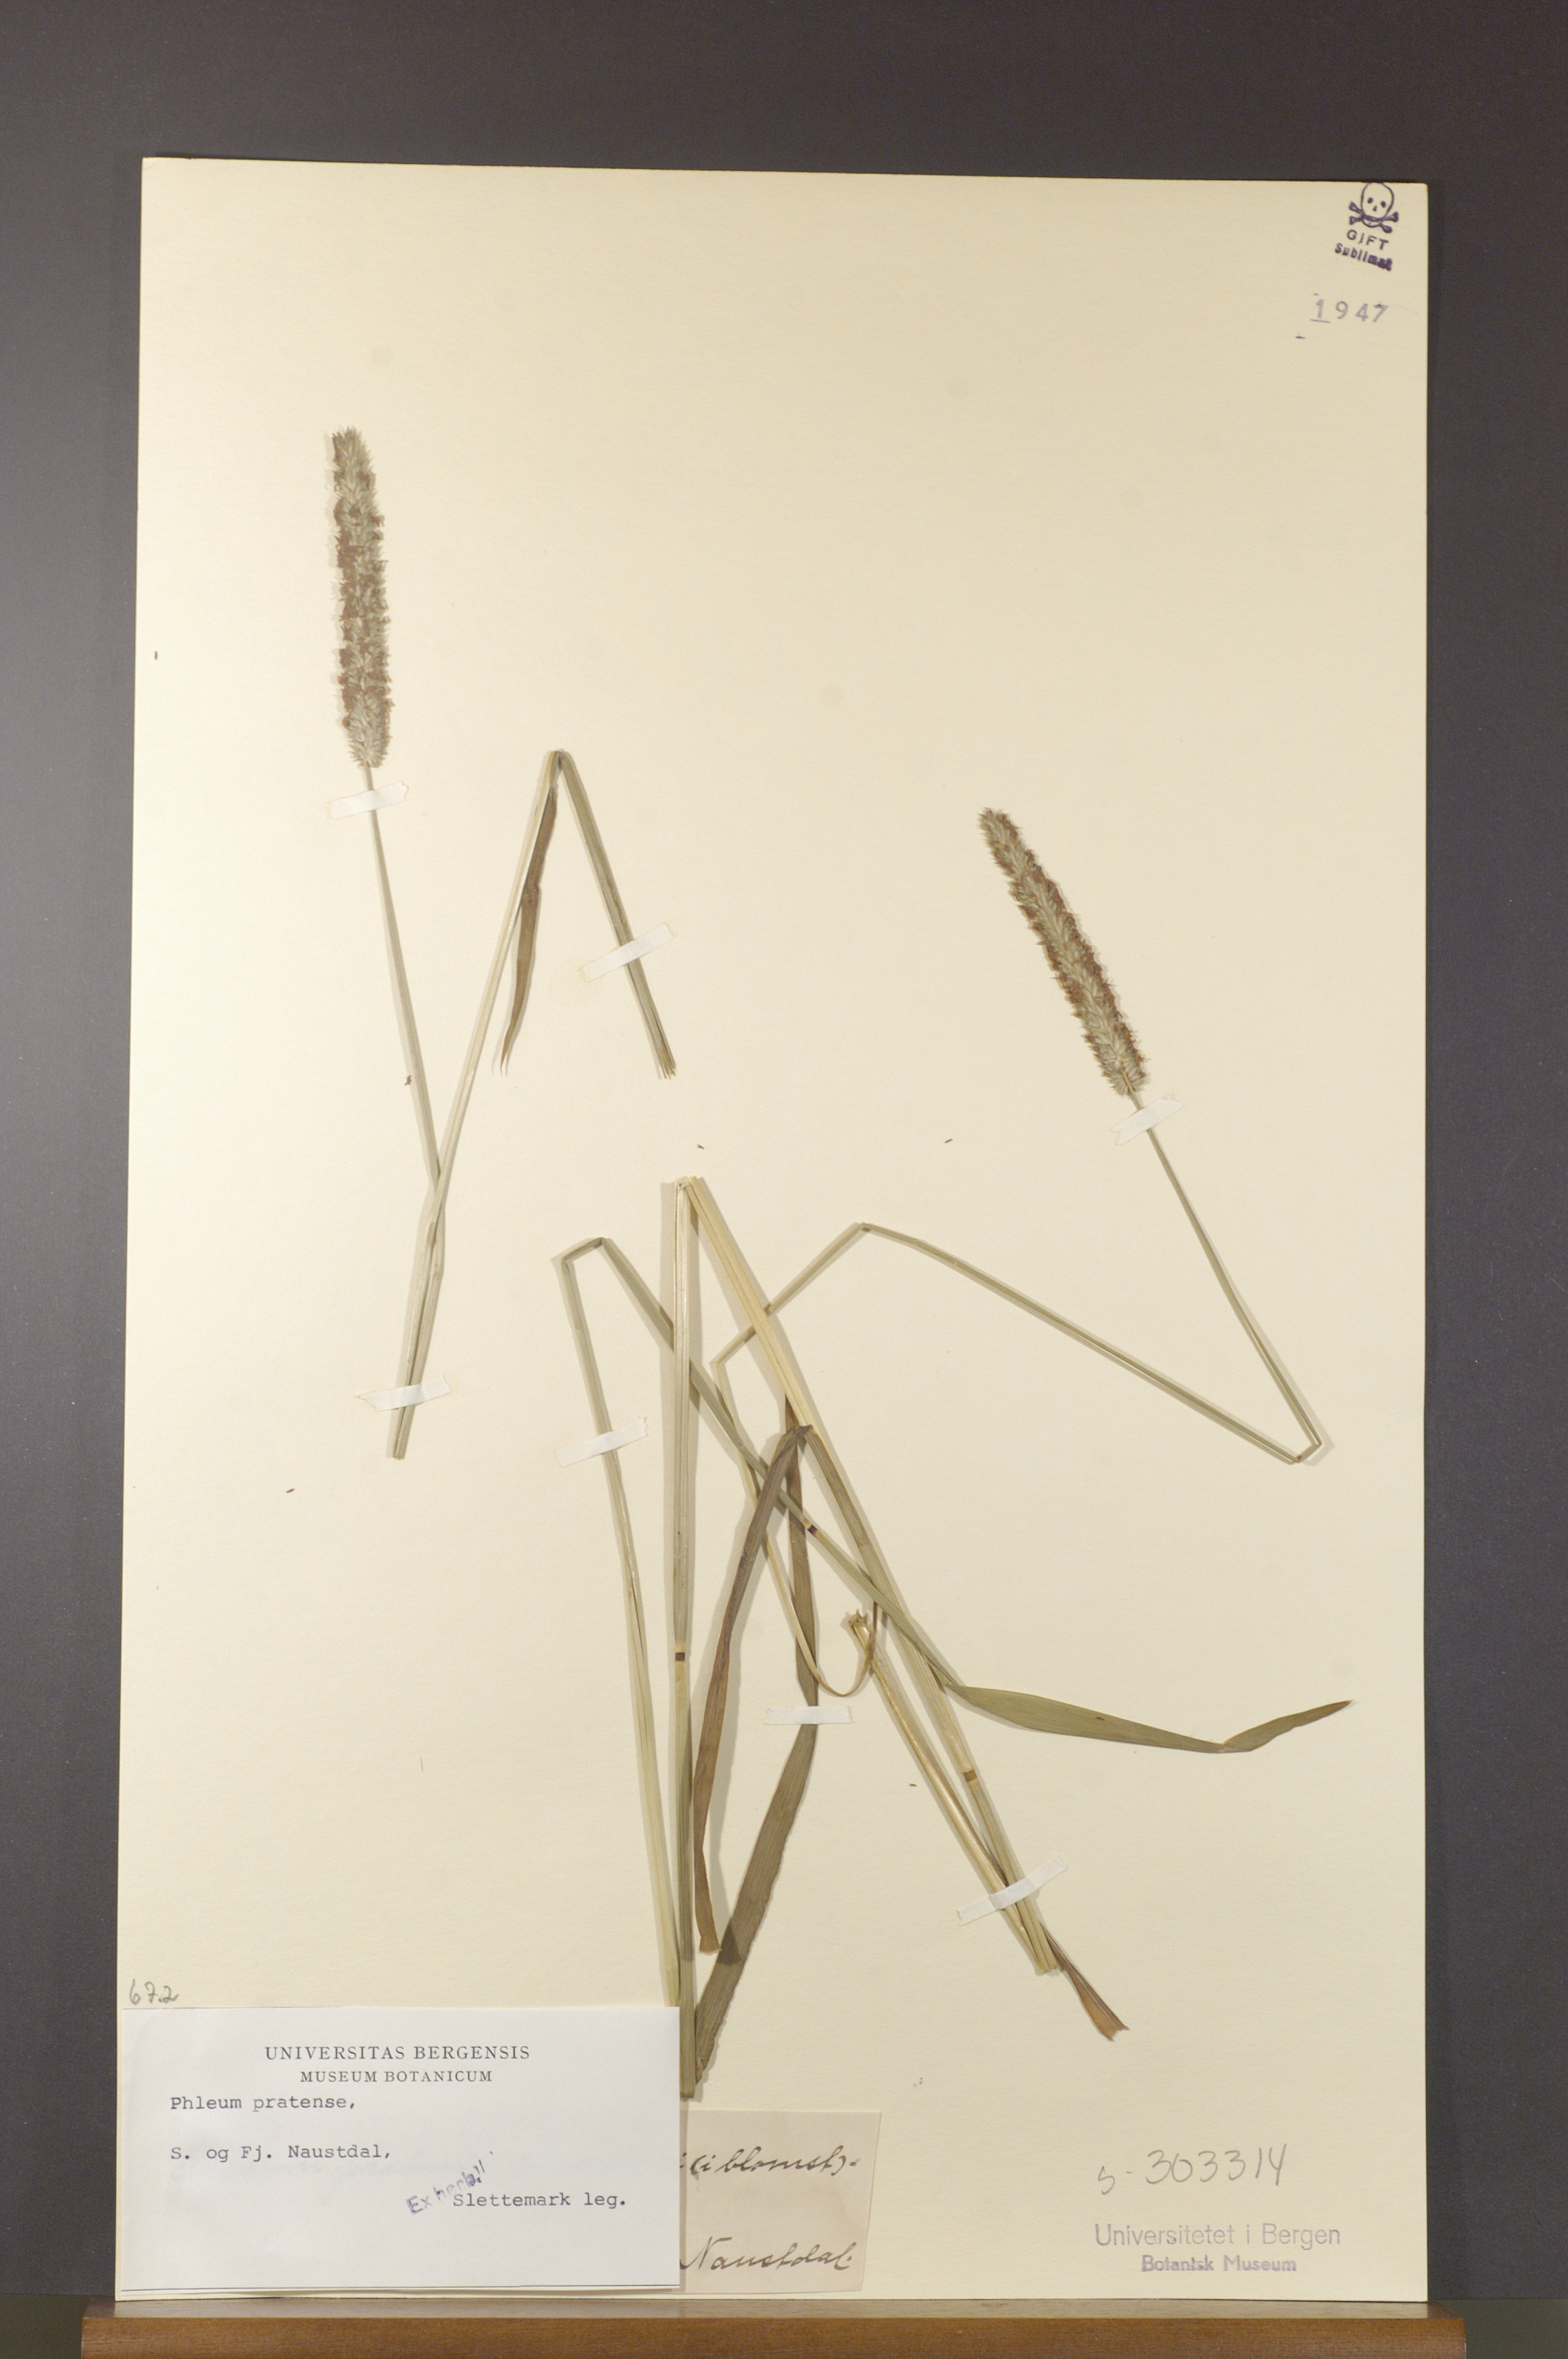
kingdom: Plantae
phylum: Tracheophyta
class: Liliopsida
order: Poales
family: Poaceae
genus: Phleum
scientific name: Phleum pratense
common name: Timothy grass
